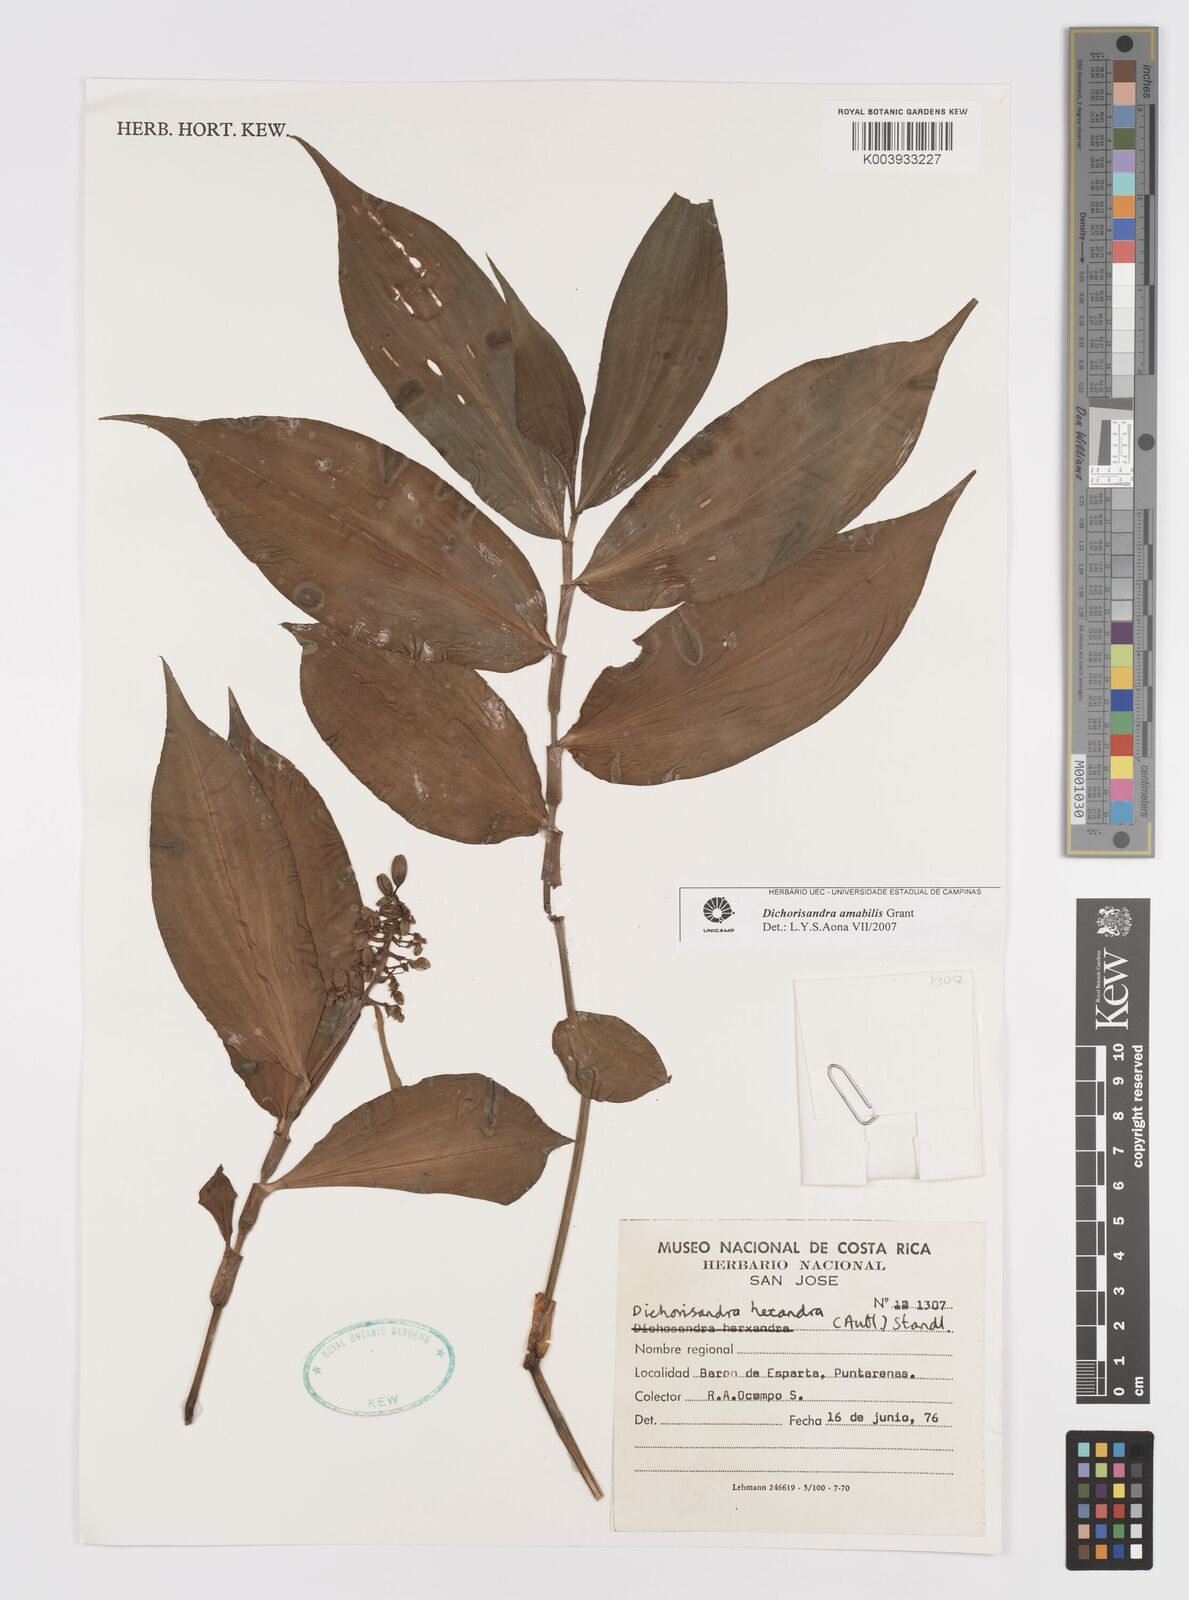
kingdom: Plantae
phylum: Tracheophyta
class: Liliopsida
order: Commelinales
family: Commelinaceae
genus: Dichorisandra
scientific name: Dichorisandra amabilis
